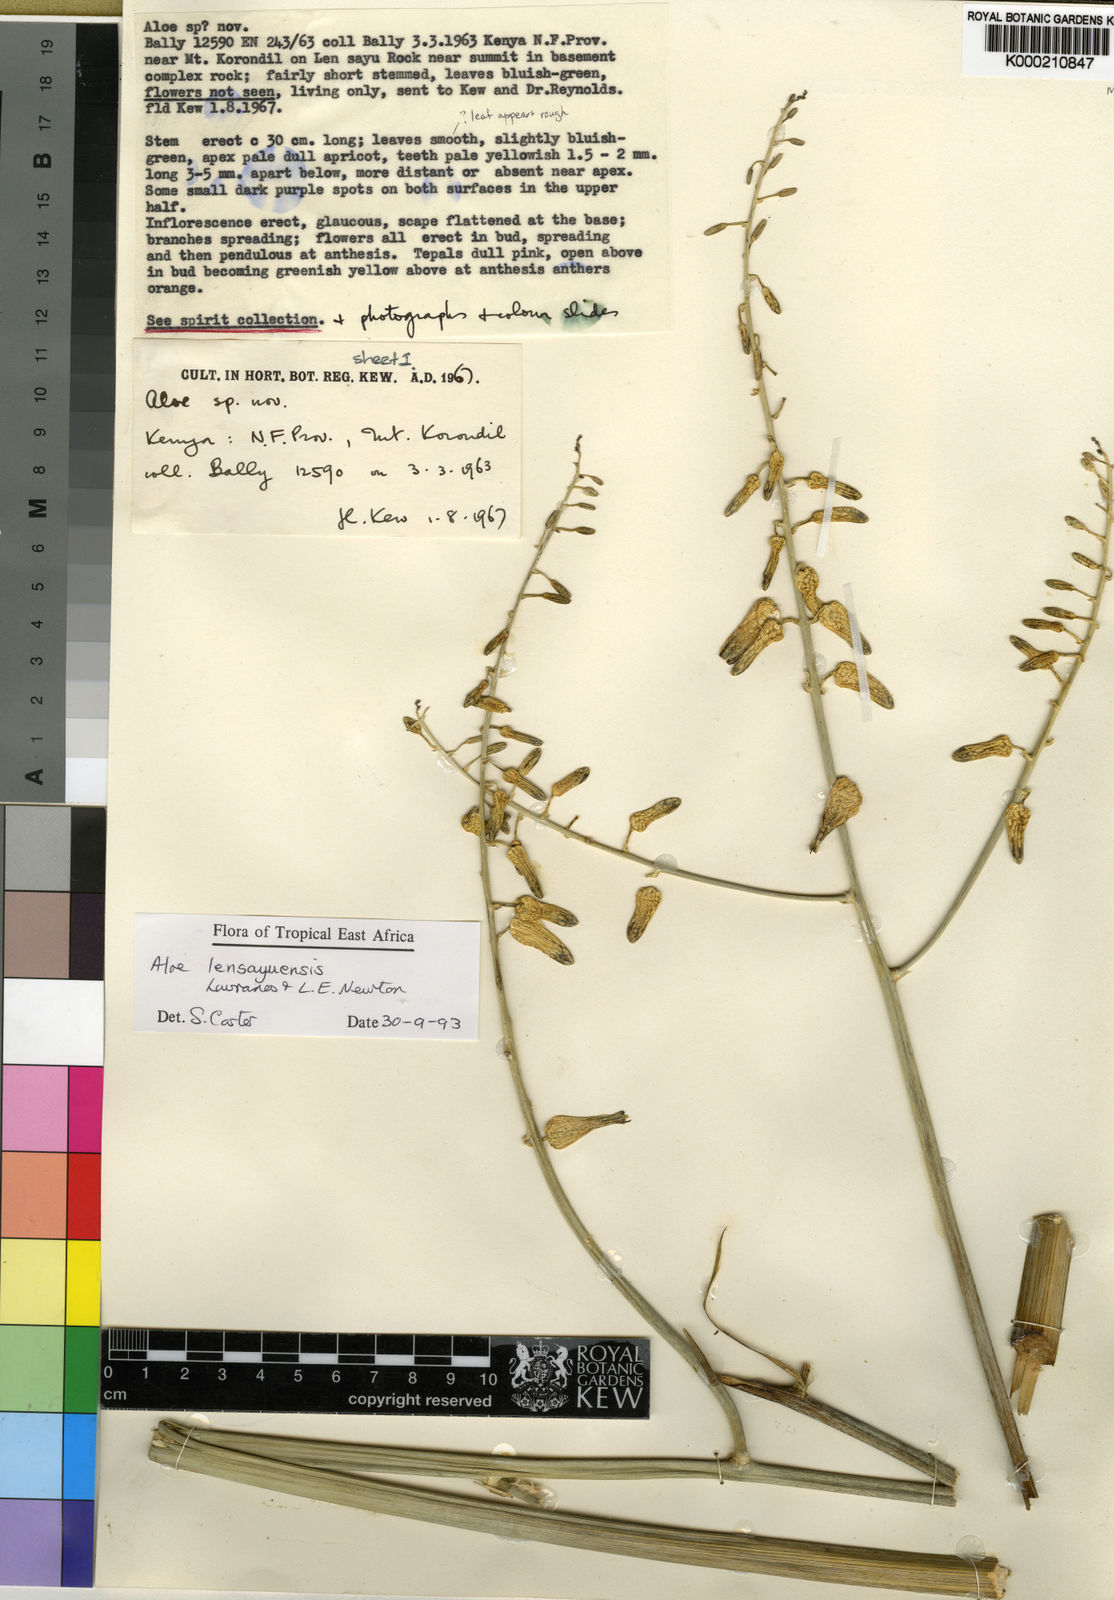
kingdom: Plantae
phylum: Tracheophyta
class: Liliopsida
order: Asparagales
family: Asphodelaceae
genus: Aloe
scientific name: Aloe lensayuensis
